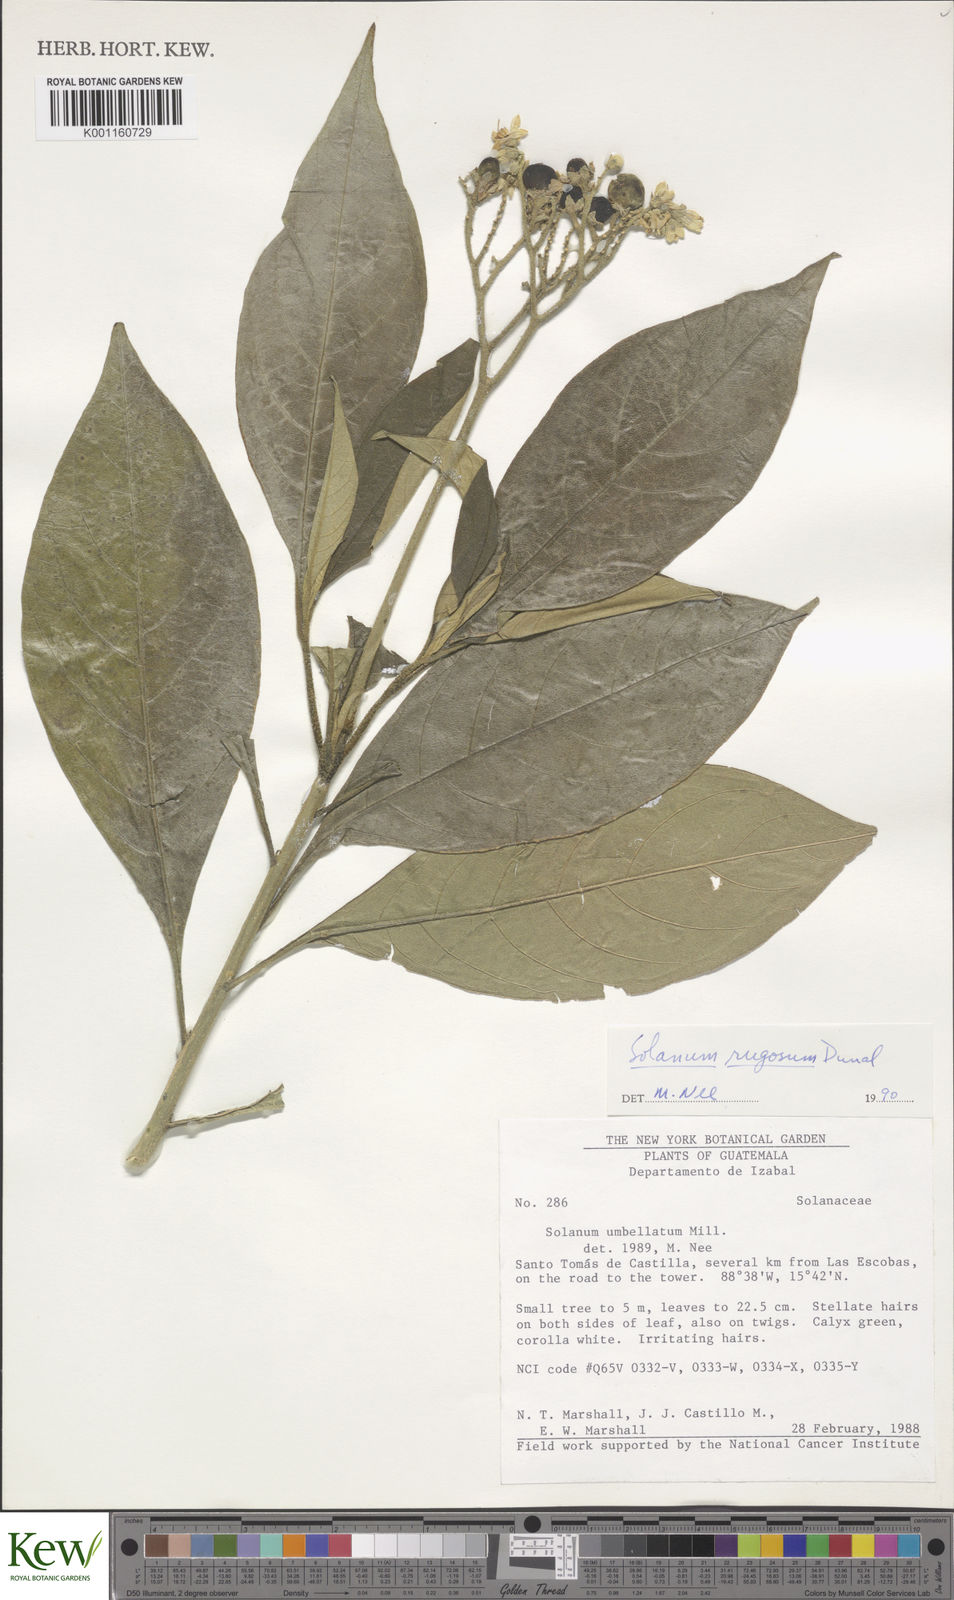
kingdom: Plantae
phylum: Tracheophyta
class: Magnoliopsida
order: Solanales
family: Solanaceae
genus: Solanum
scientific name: Solanum rugosum
